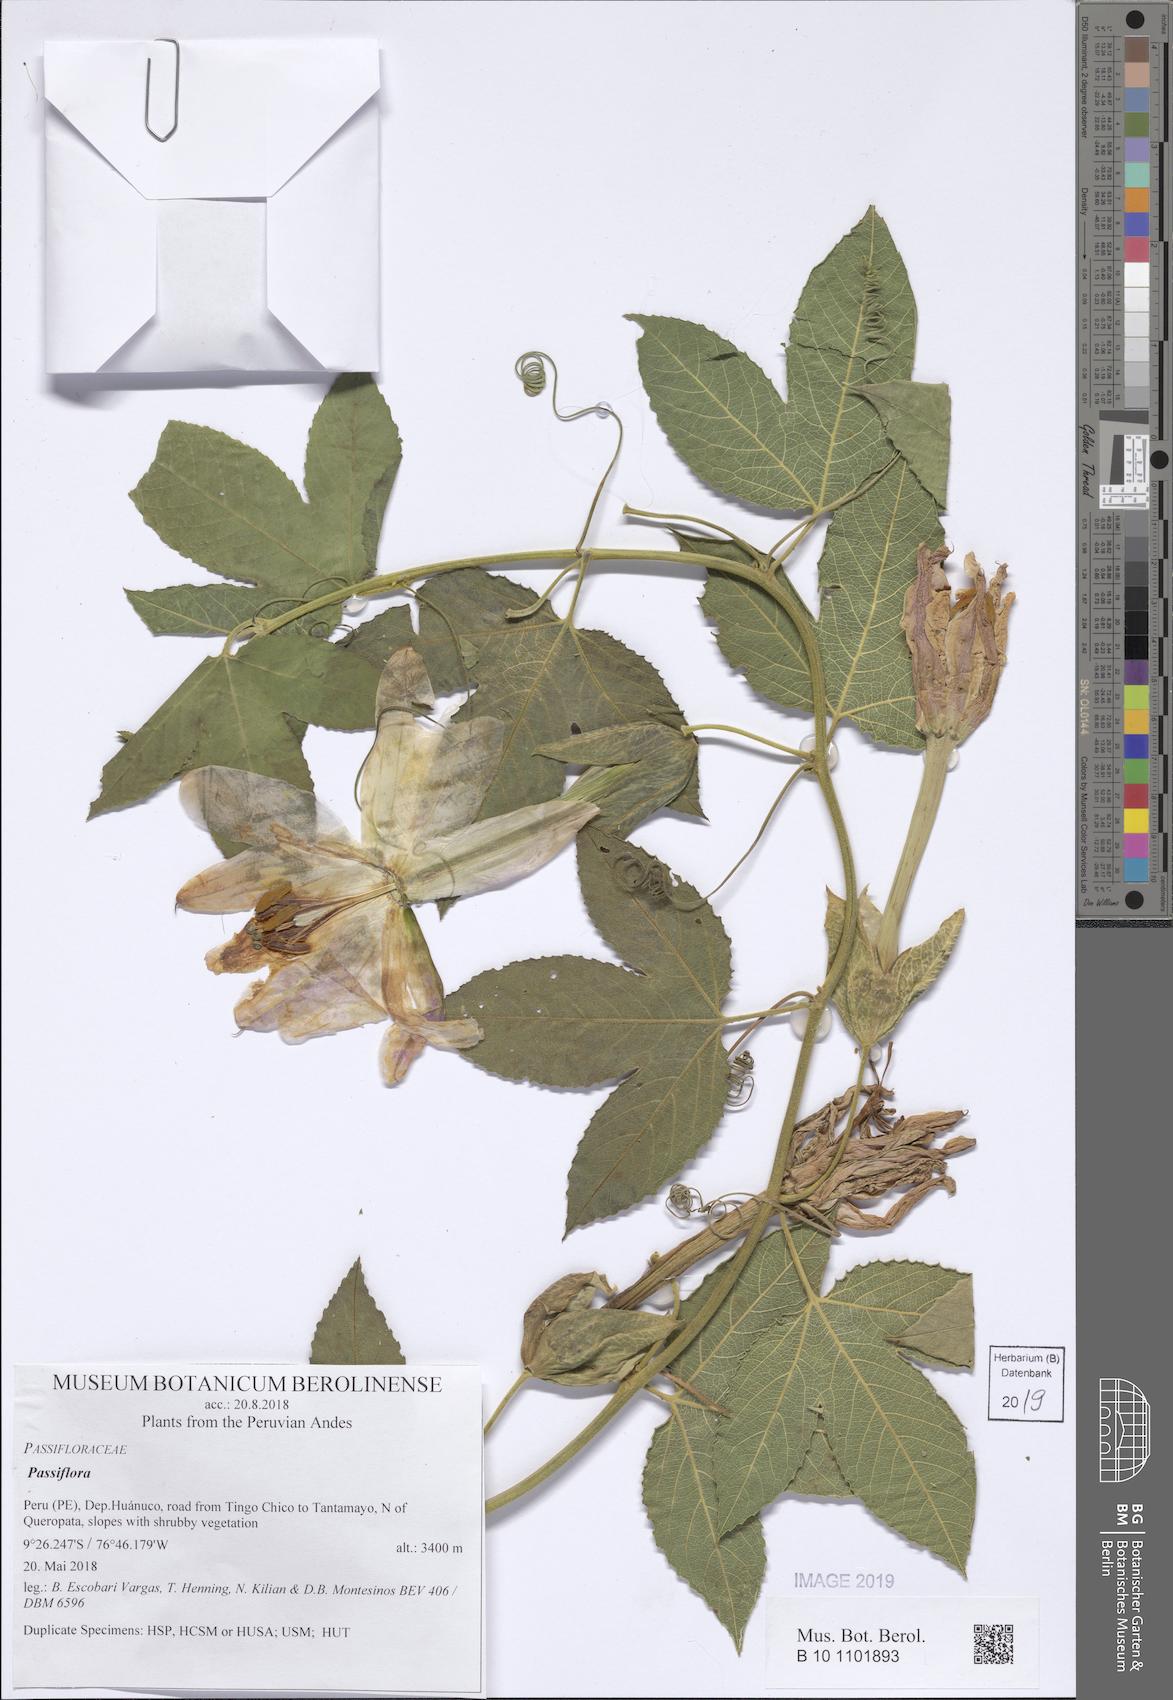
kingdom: Plantae
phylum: Tracheophyta
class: Magnoliopsida
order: Malpighiales
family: Passifloraceae
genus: Passiflora
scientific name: Passiflora
